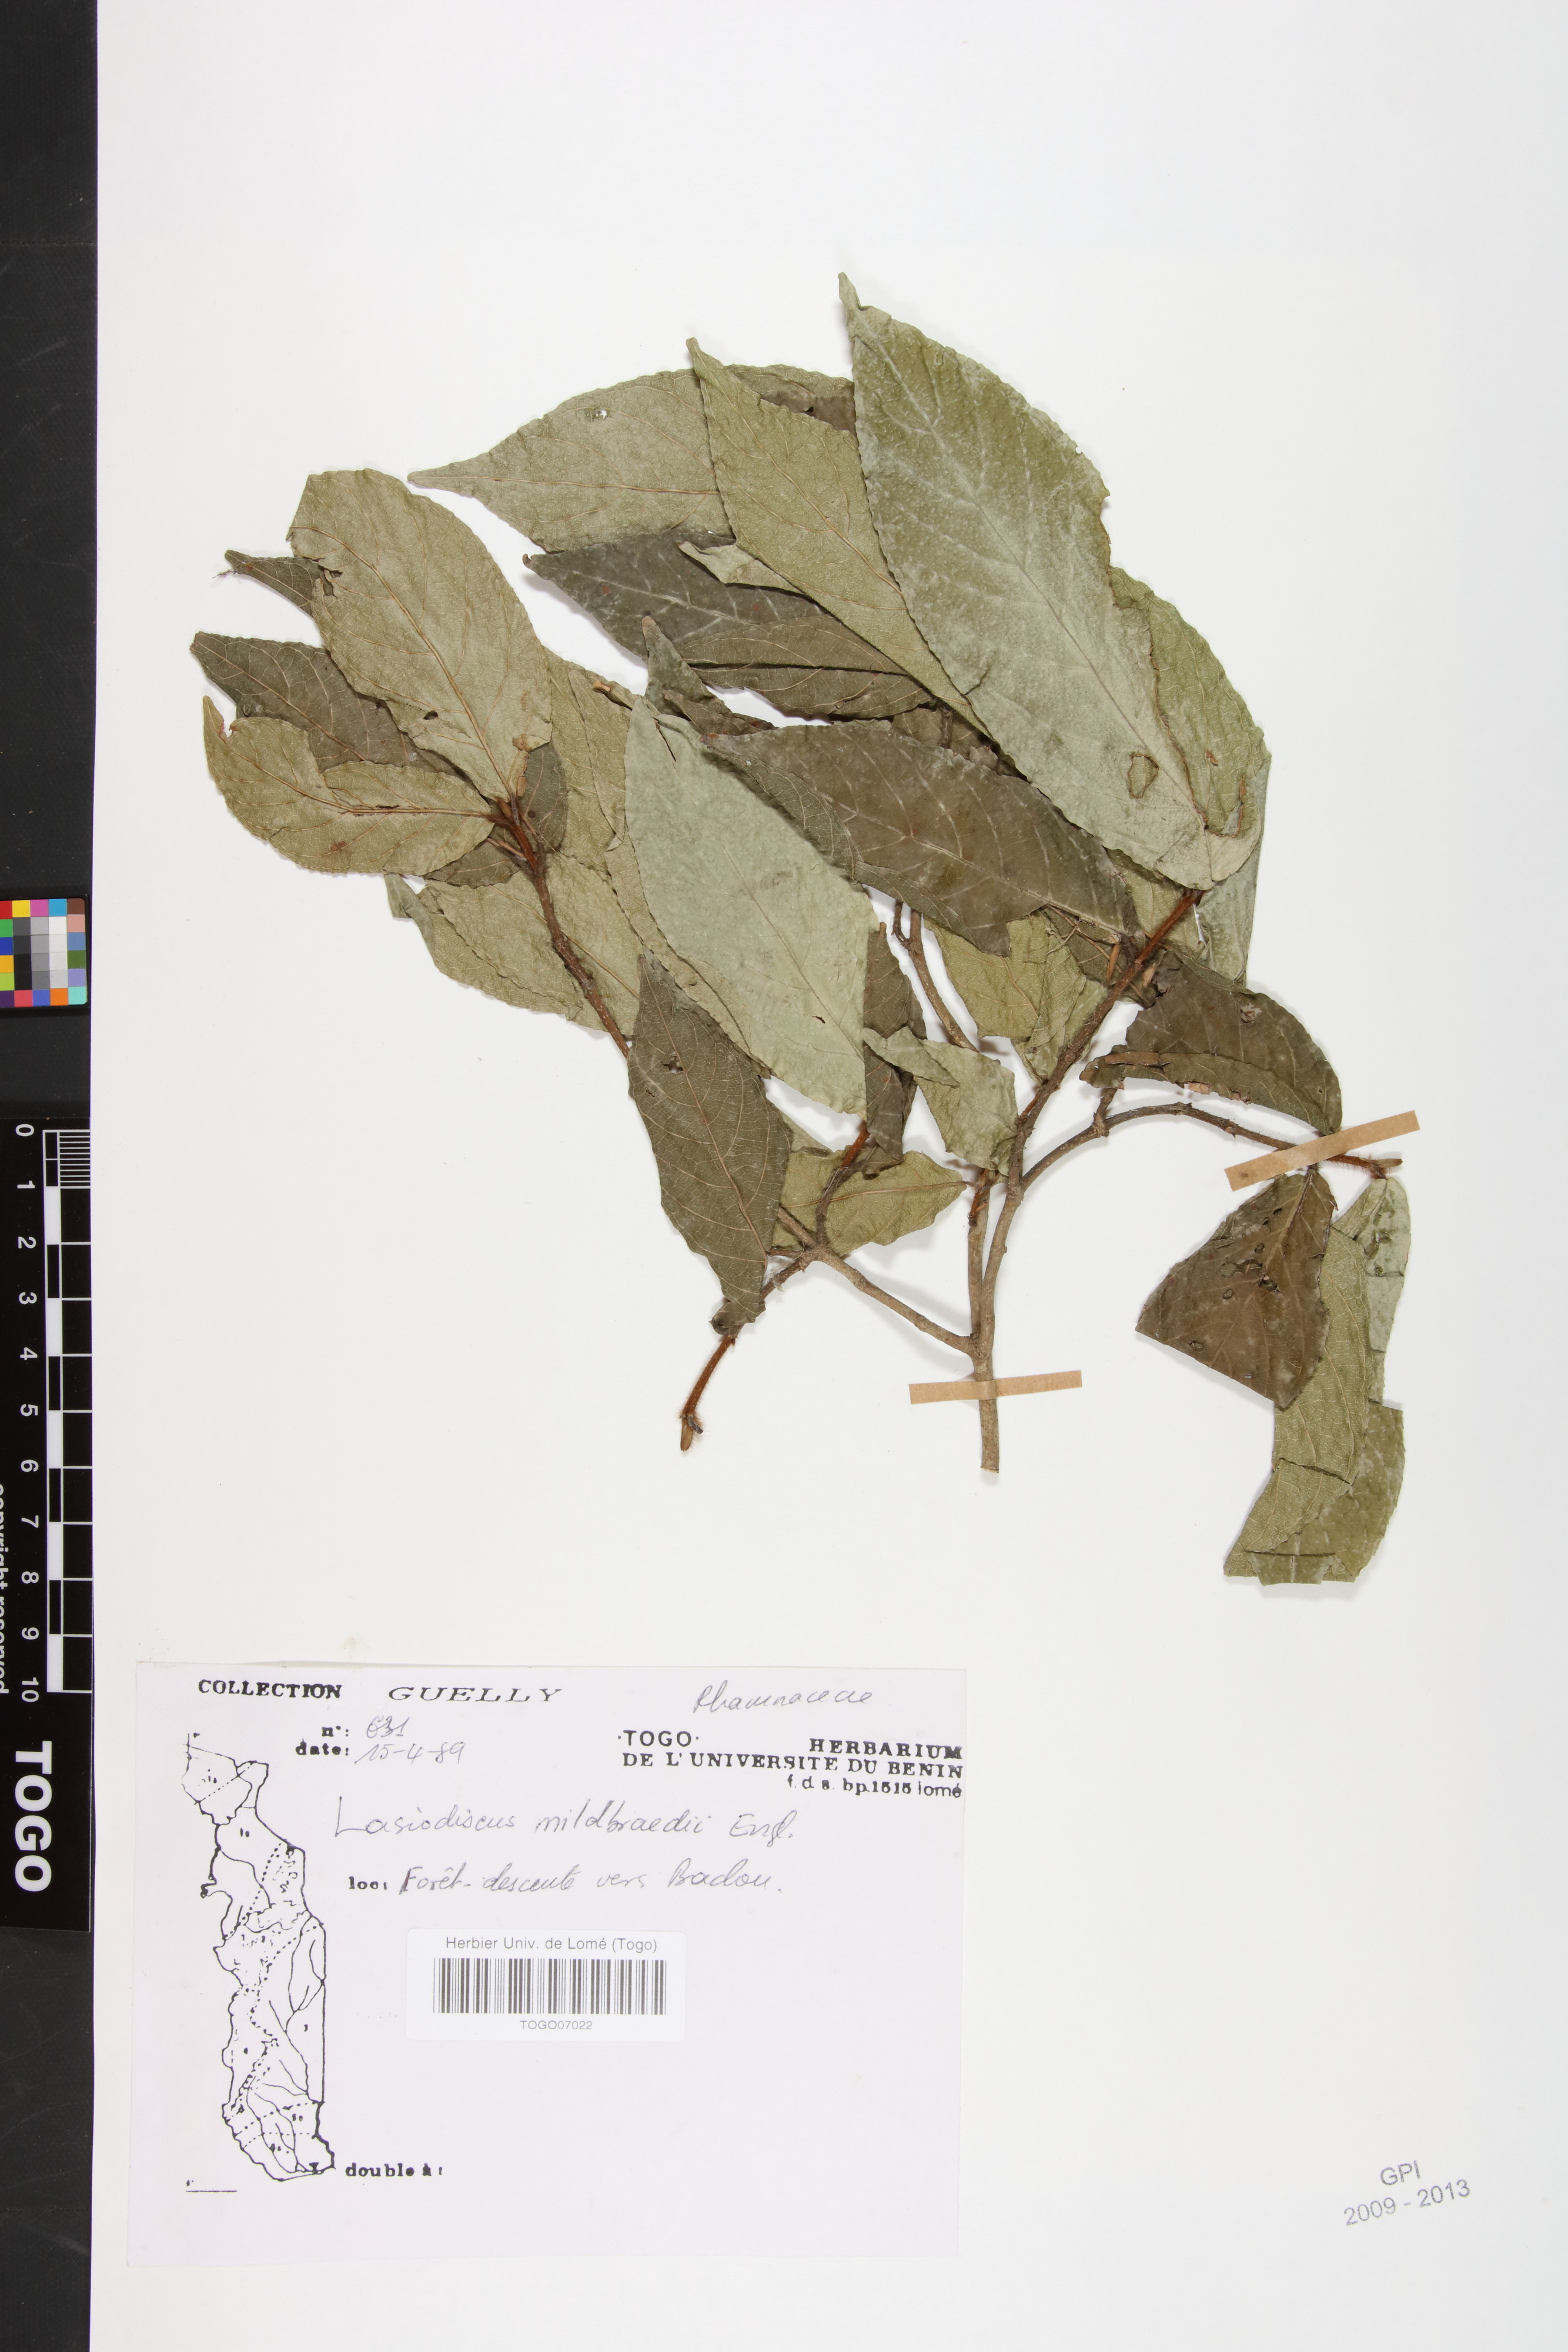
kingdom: Plantae
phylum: Tracheophyta
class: Magnoliopsida
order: Rosales
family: Rhamnaceae
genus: Lasiodiscus
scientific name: Lasiodiscus mildbraedii
